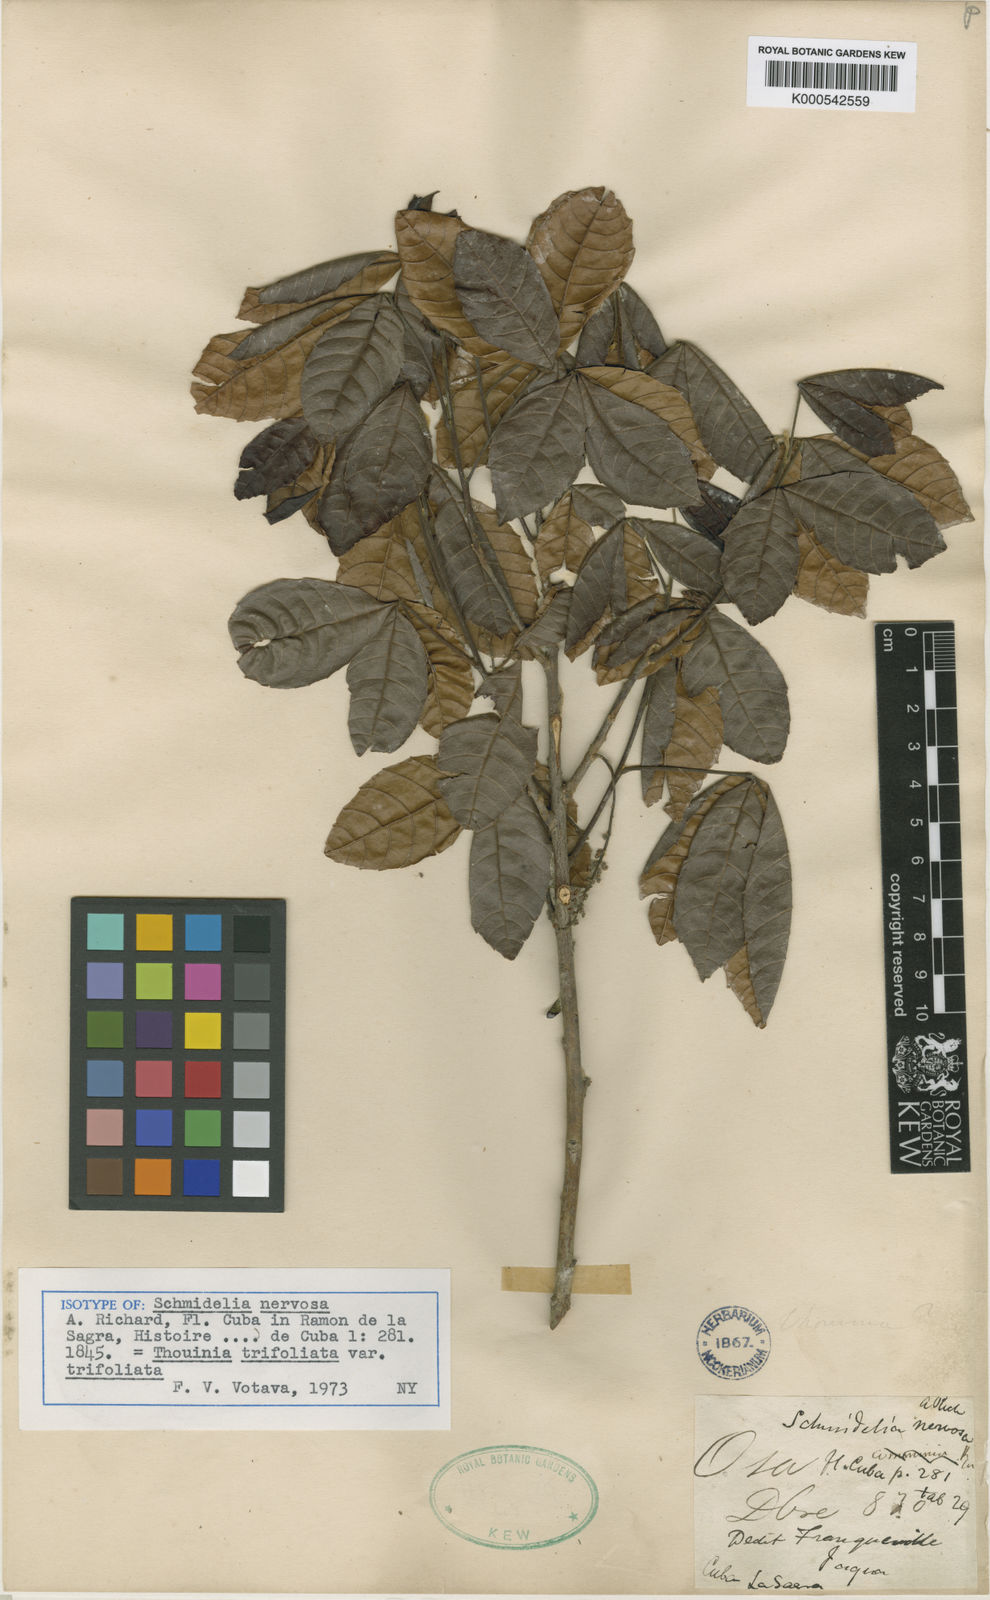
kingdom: Plantae
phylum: Tracheophyta
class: Magnoliopsida
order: Sapindales
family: Sapindaceae
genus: Thouinia
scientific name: Thouinia trifoliata
